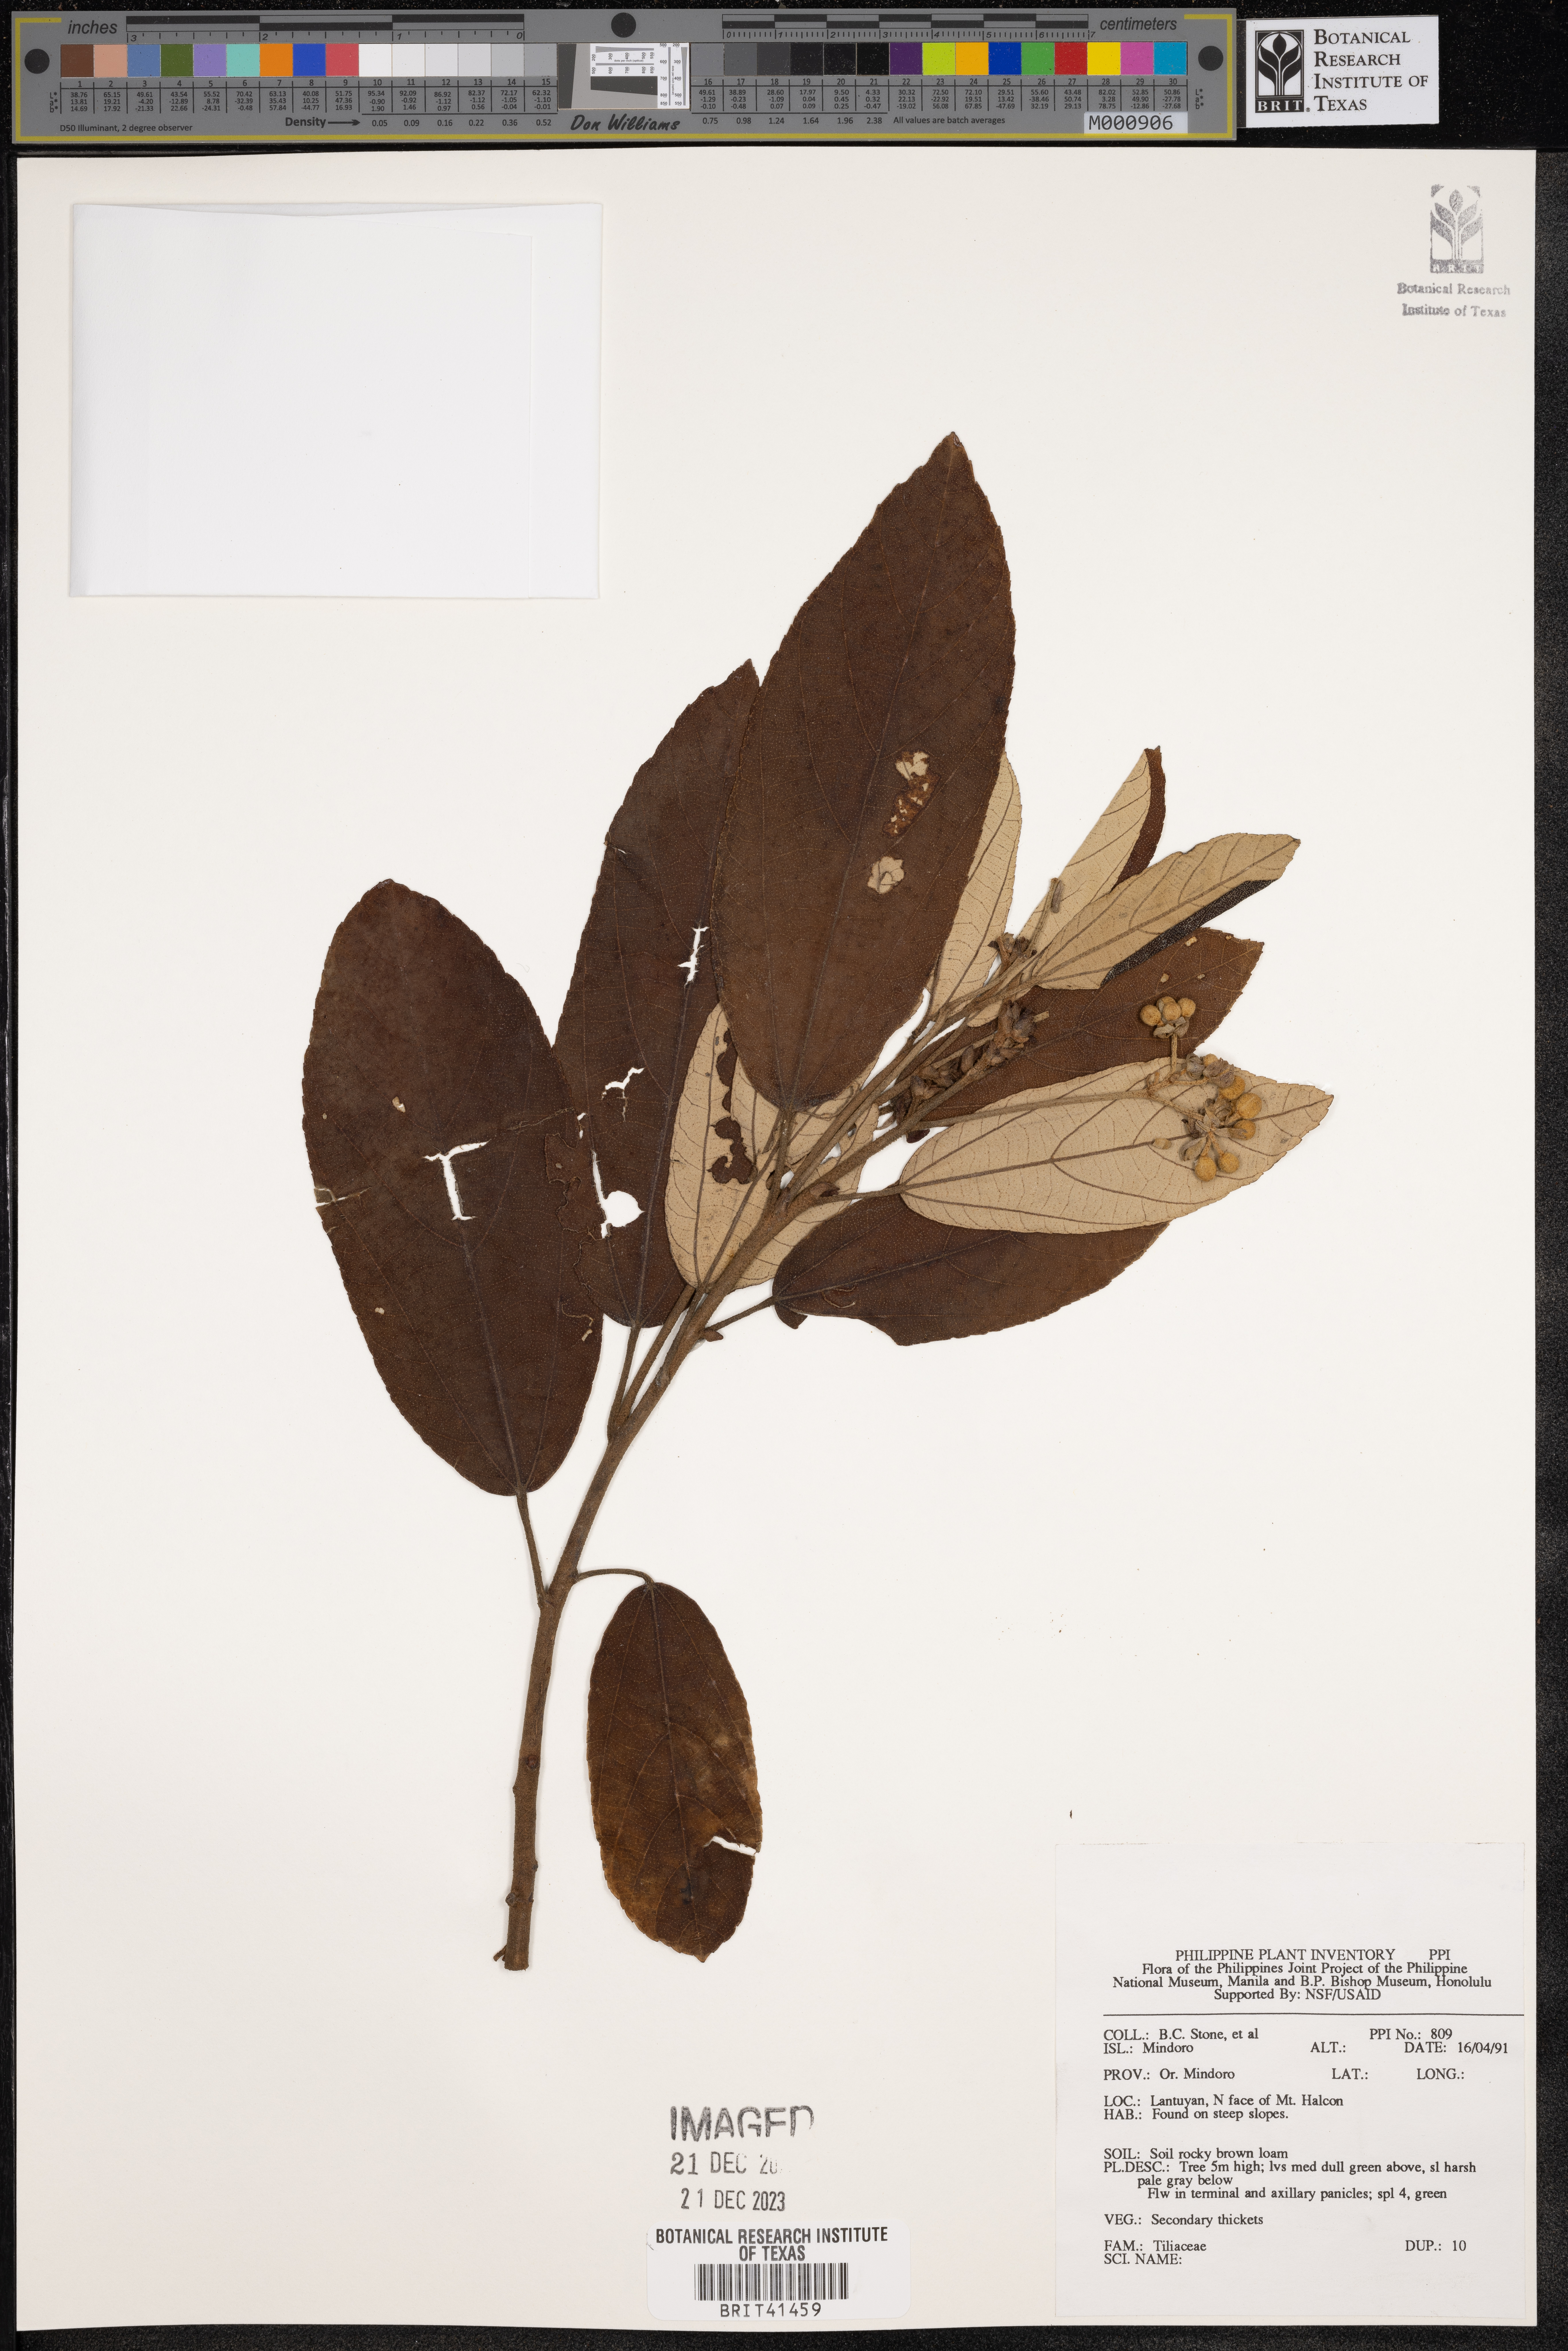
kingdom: Plantae
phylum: Tracheophyta
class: Magnoliopsida
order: Malvales
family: Tiliaceae
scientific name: Tiliaceae
